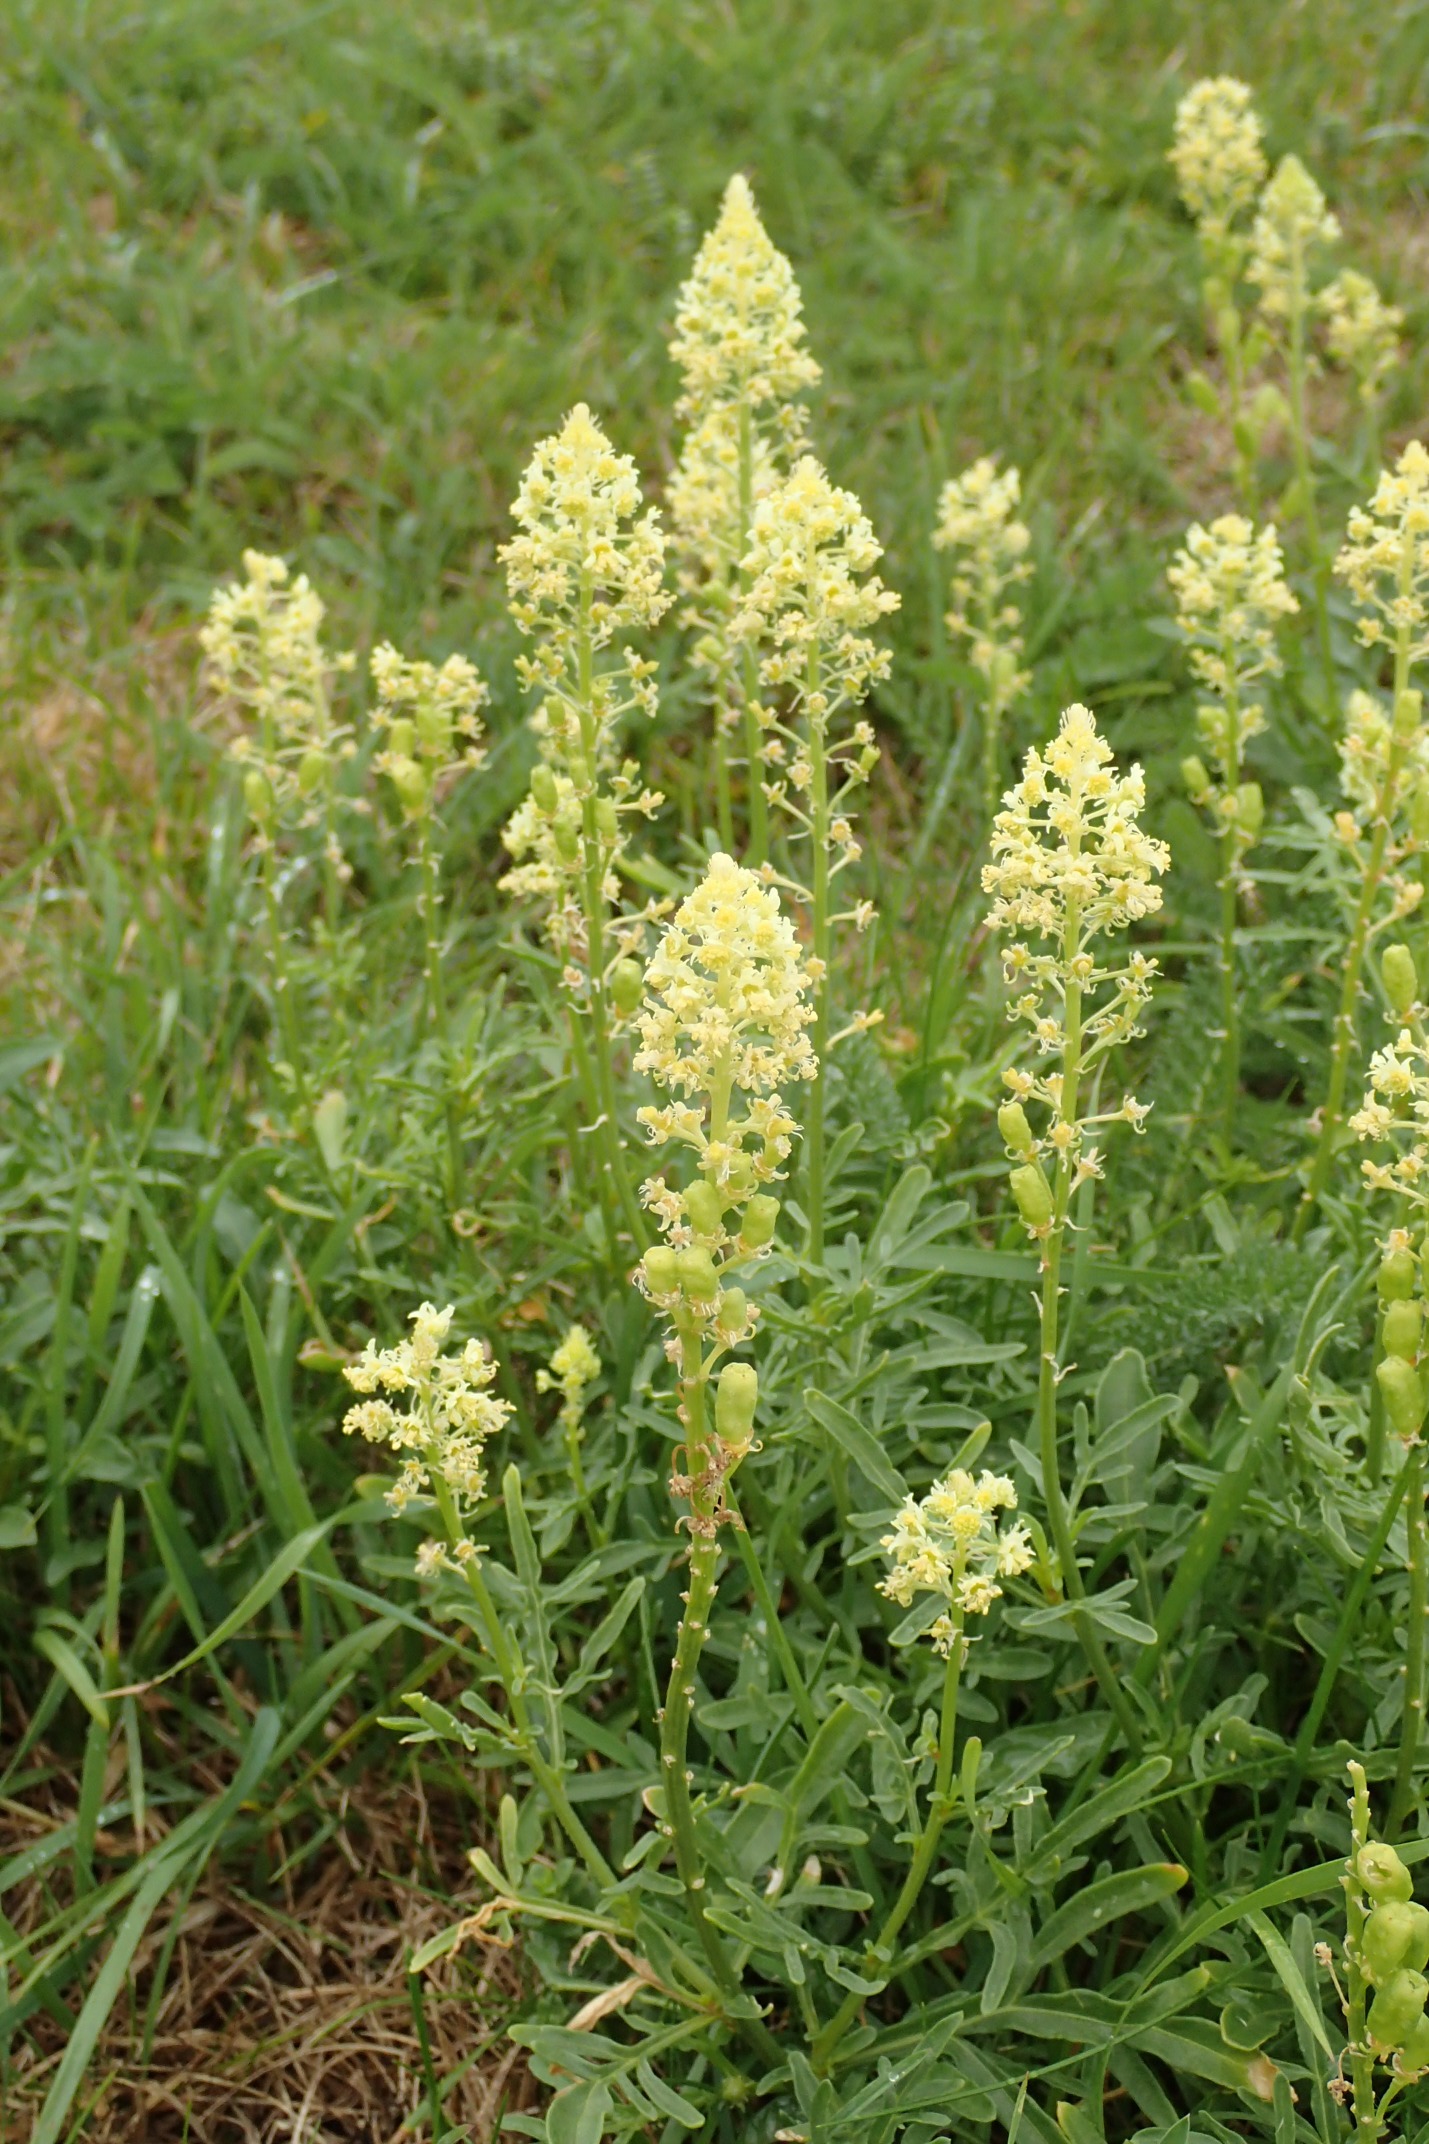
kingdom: Plantae
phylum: Tracheophyta
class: Magnoliopsida
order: Brassicales
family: Resedaceae
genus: Reseda
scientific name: Reseda lutea
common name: Gul reseda
